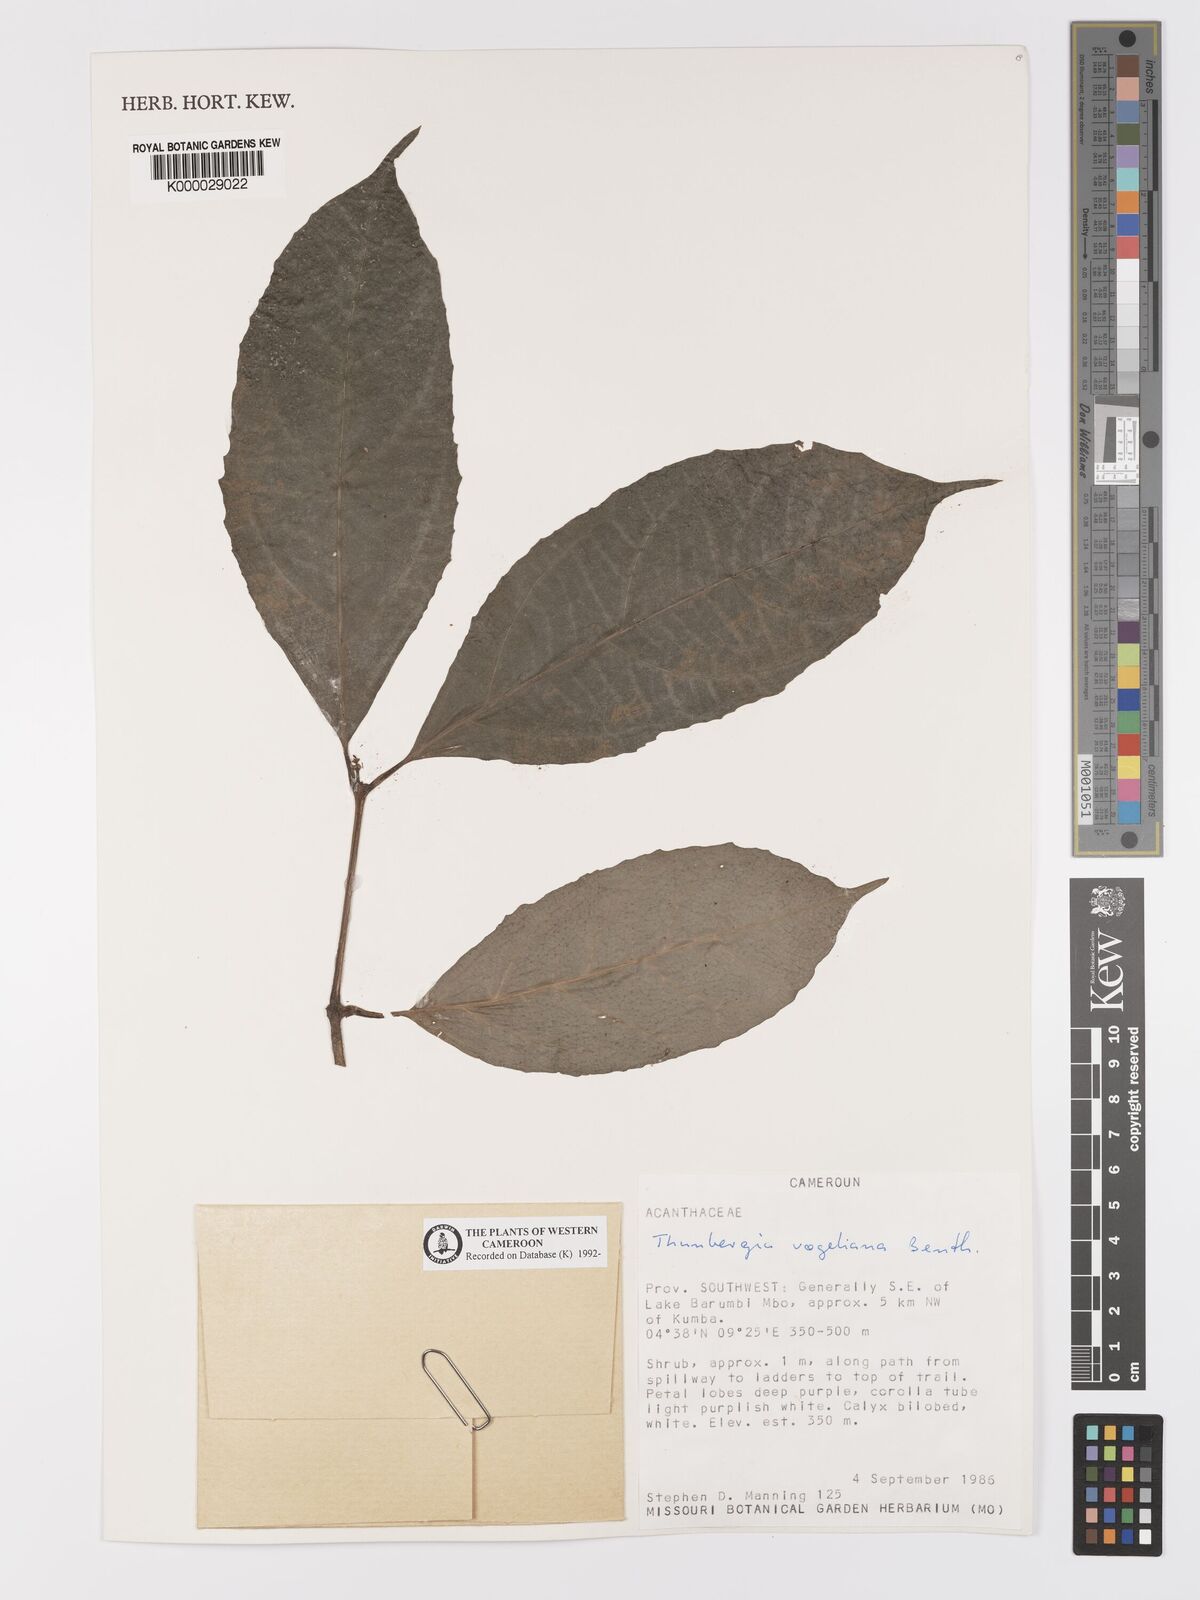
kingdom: Plantae
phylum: Tracheophyta
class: Magnoliopsida
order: Lamiales
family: Acanthaceae
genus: Thunbergia
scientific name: Thunbergia vogeliana
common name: Acanthaceae
